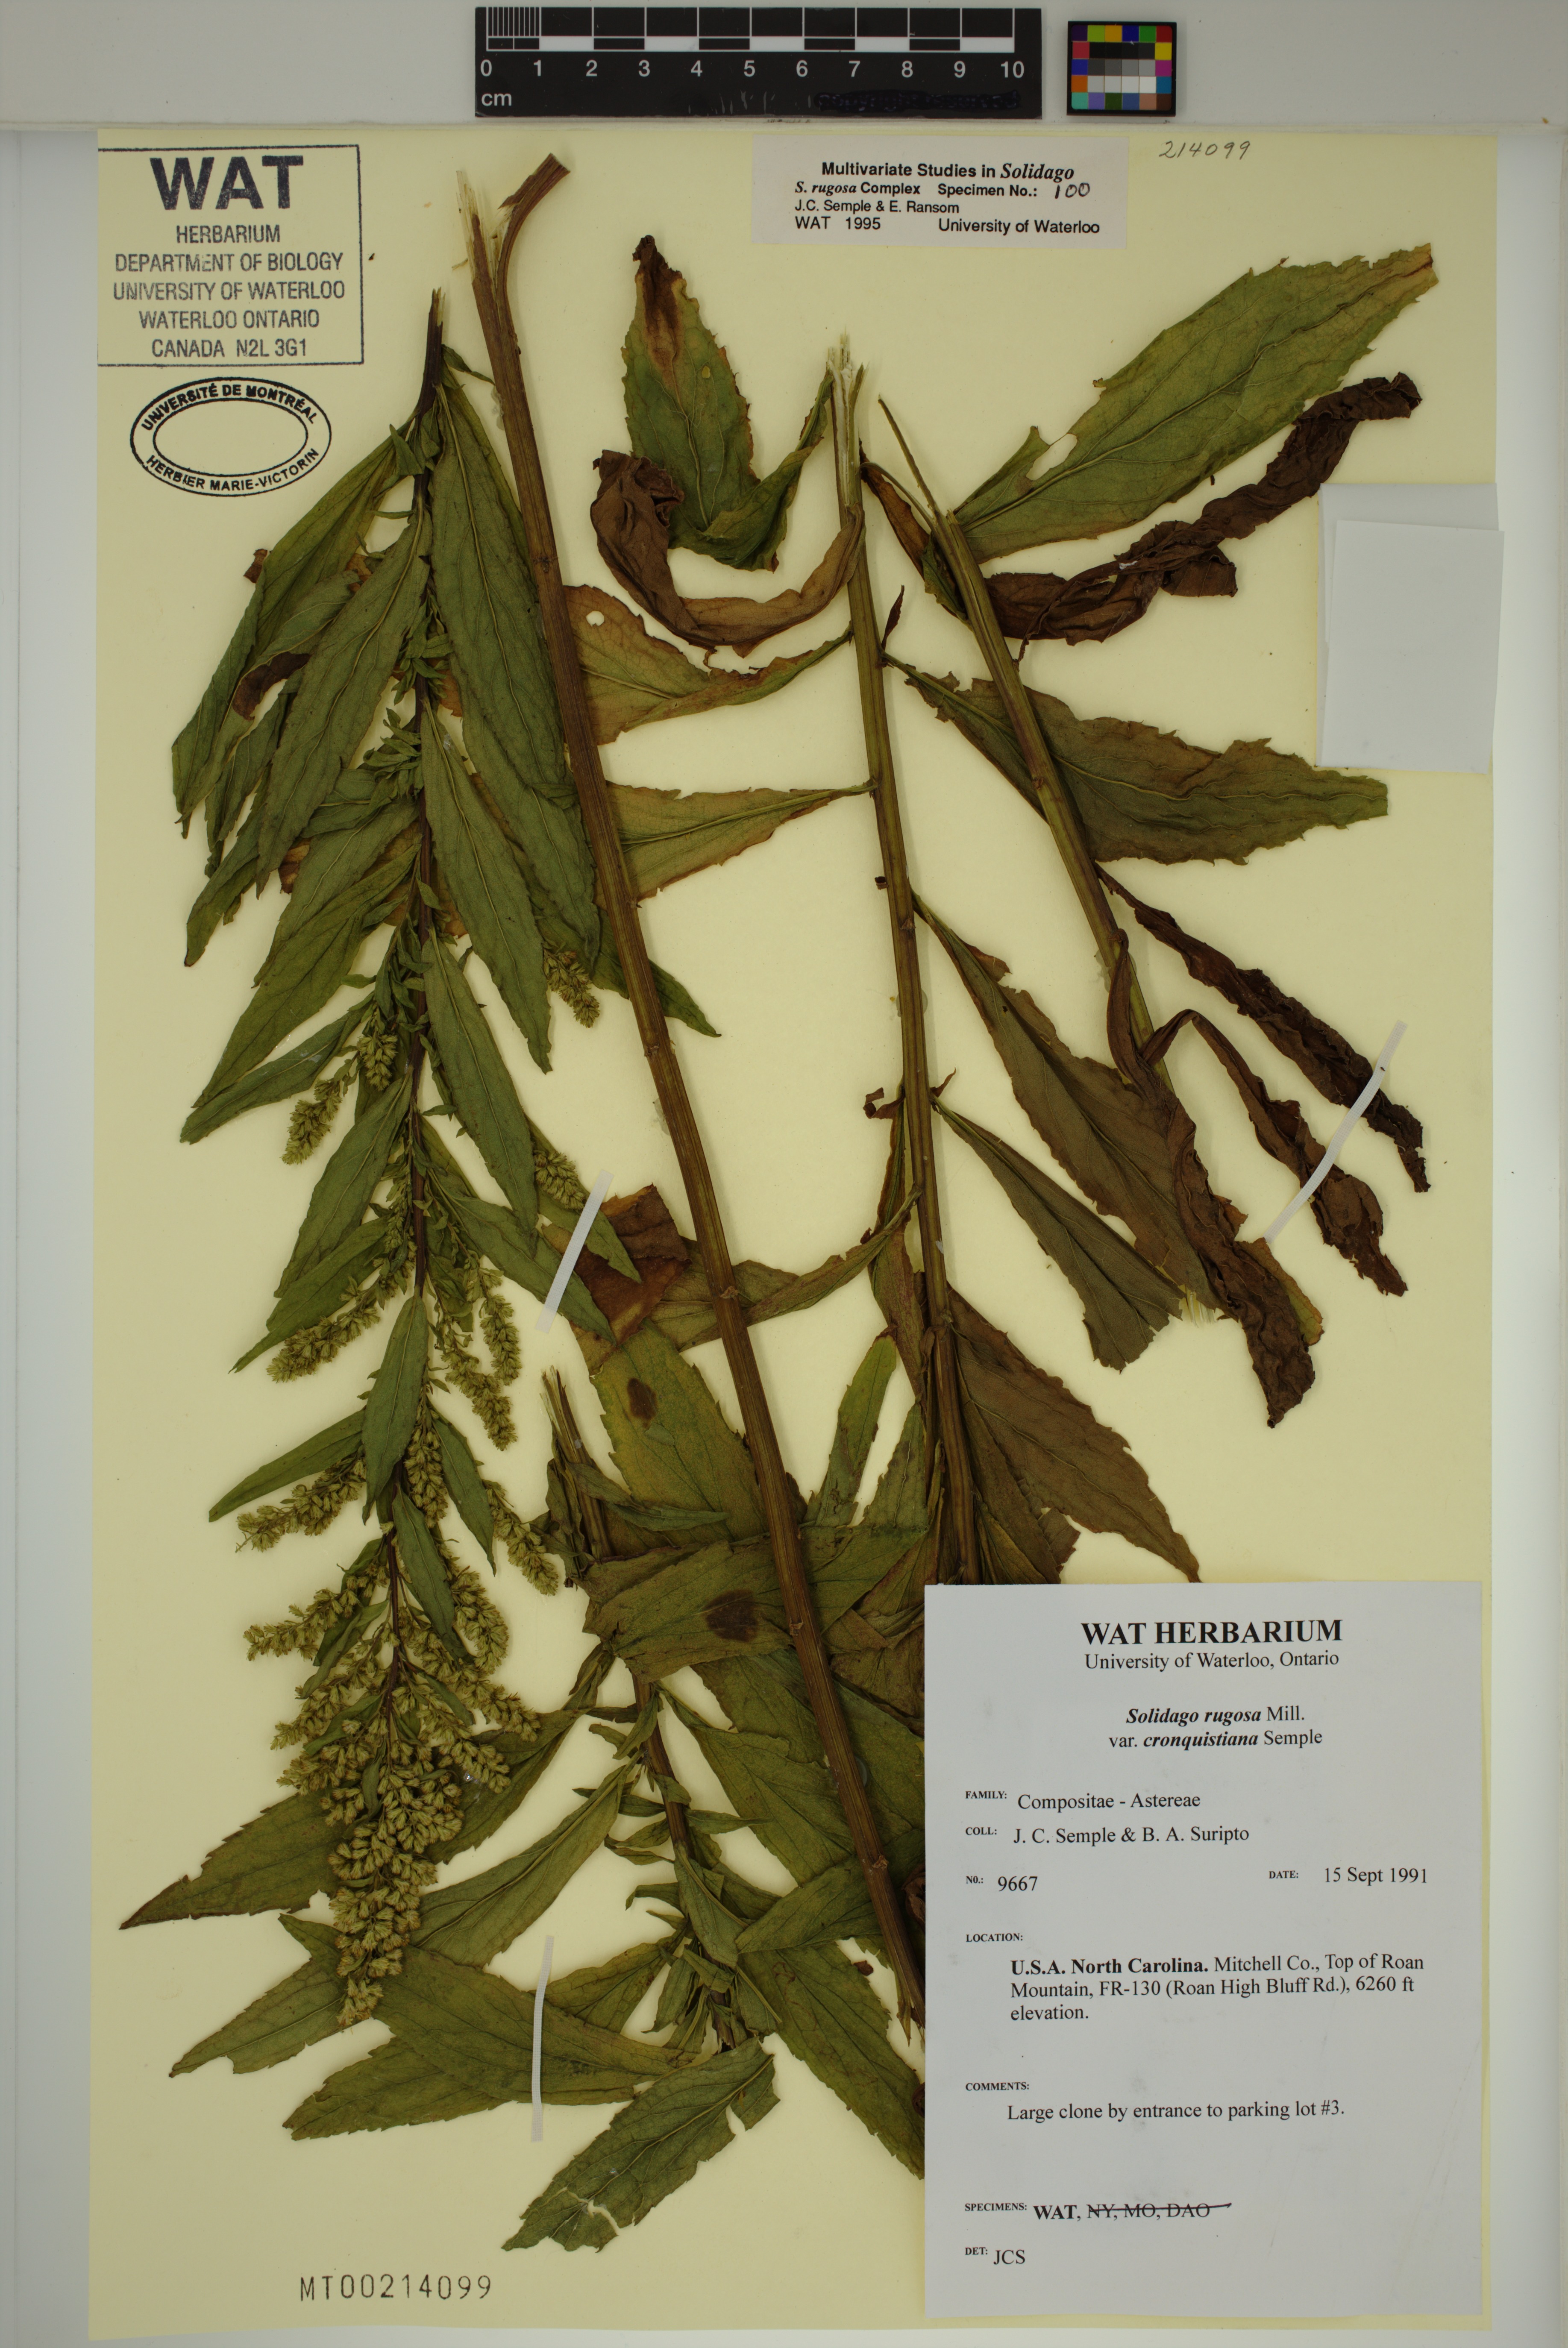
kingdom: Plantae
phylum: Tracheophyta
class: Magnoliopsida
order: Asterales
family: Asteraceae
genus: Solidago
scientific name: Solidago rugosa
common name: Rough-stemmed goldenrod
